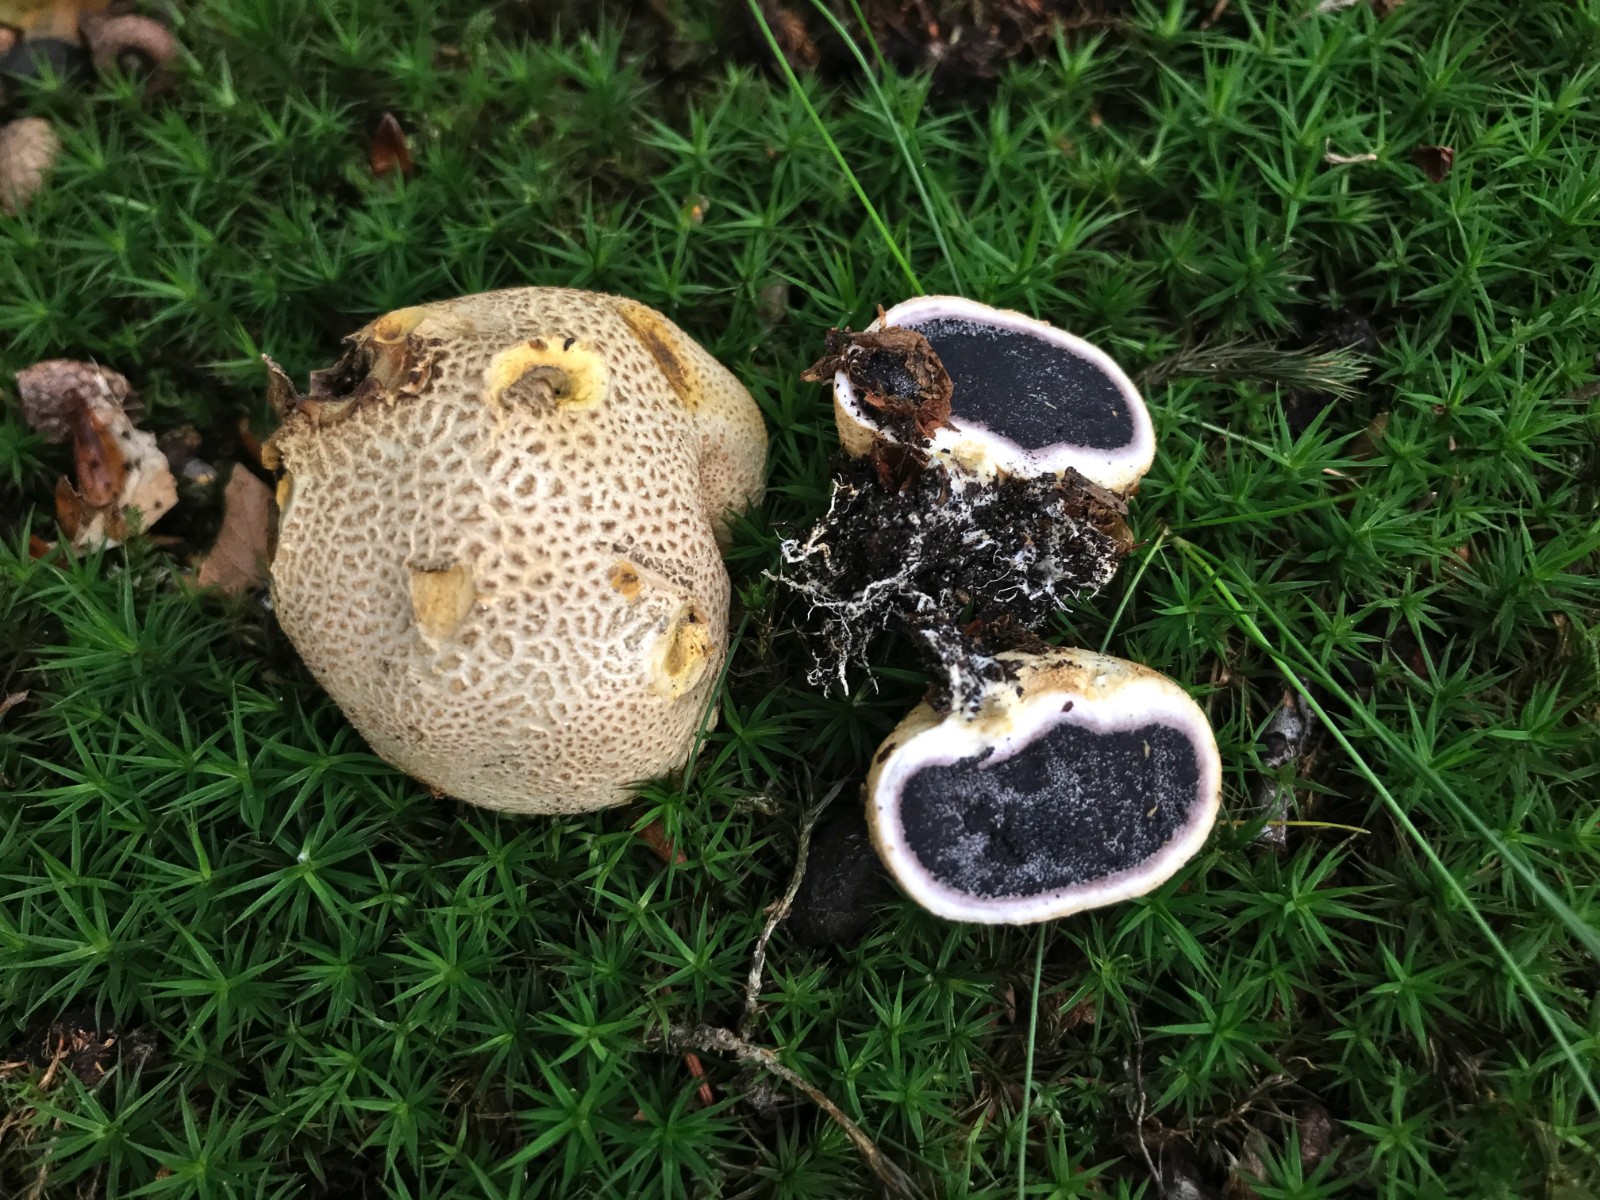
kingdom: Fungi
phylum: Basidiomycota
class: Agaricomycetes
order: Boletales
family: Sclerodermataceae
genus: Scleroderma
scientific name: Scleroderma citrinum
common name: almindelig bruskbold
